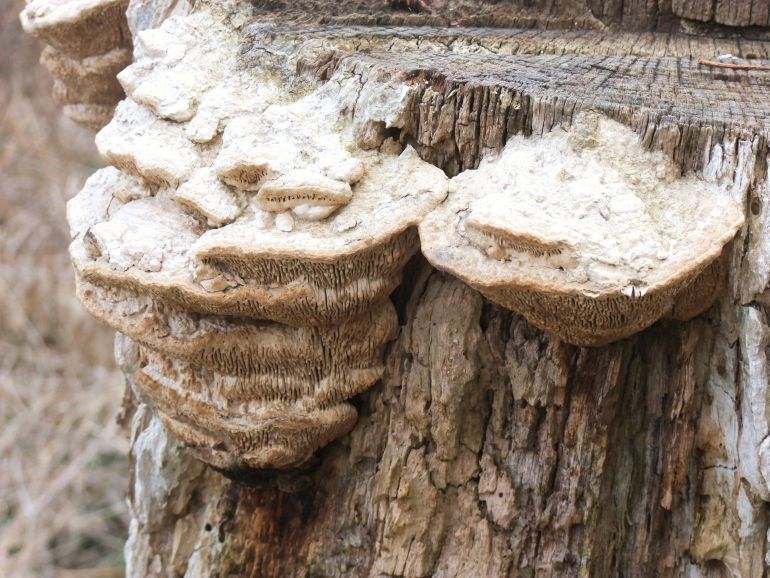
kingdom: Fungi
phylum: Basidiomycota
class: Agaricomycetes
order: Polyporales
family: Fomitopsidaceae
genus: Daedalea
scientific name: Daedalea quercina
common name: ege-labyrintsvamp
